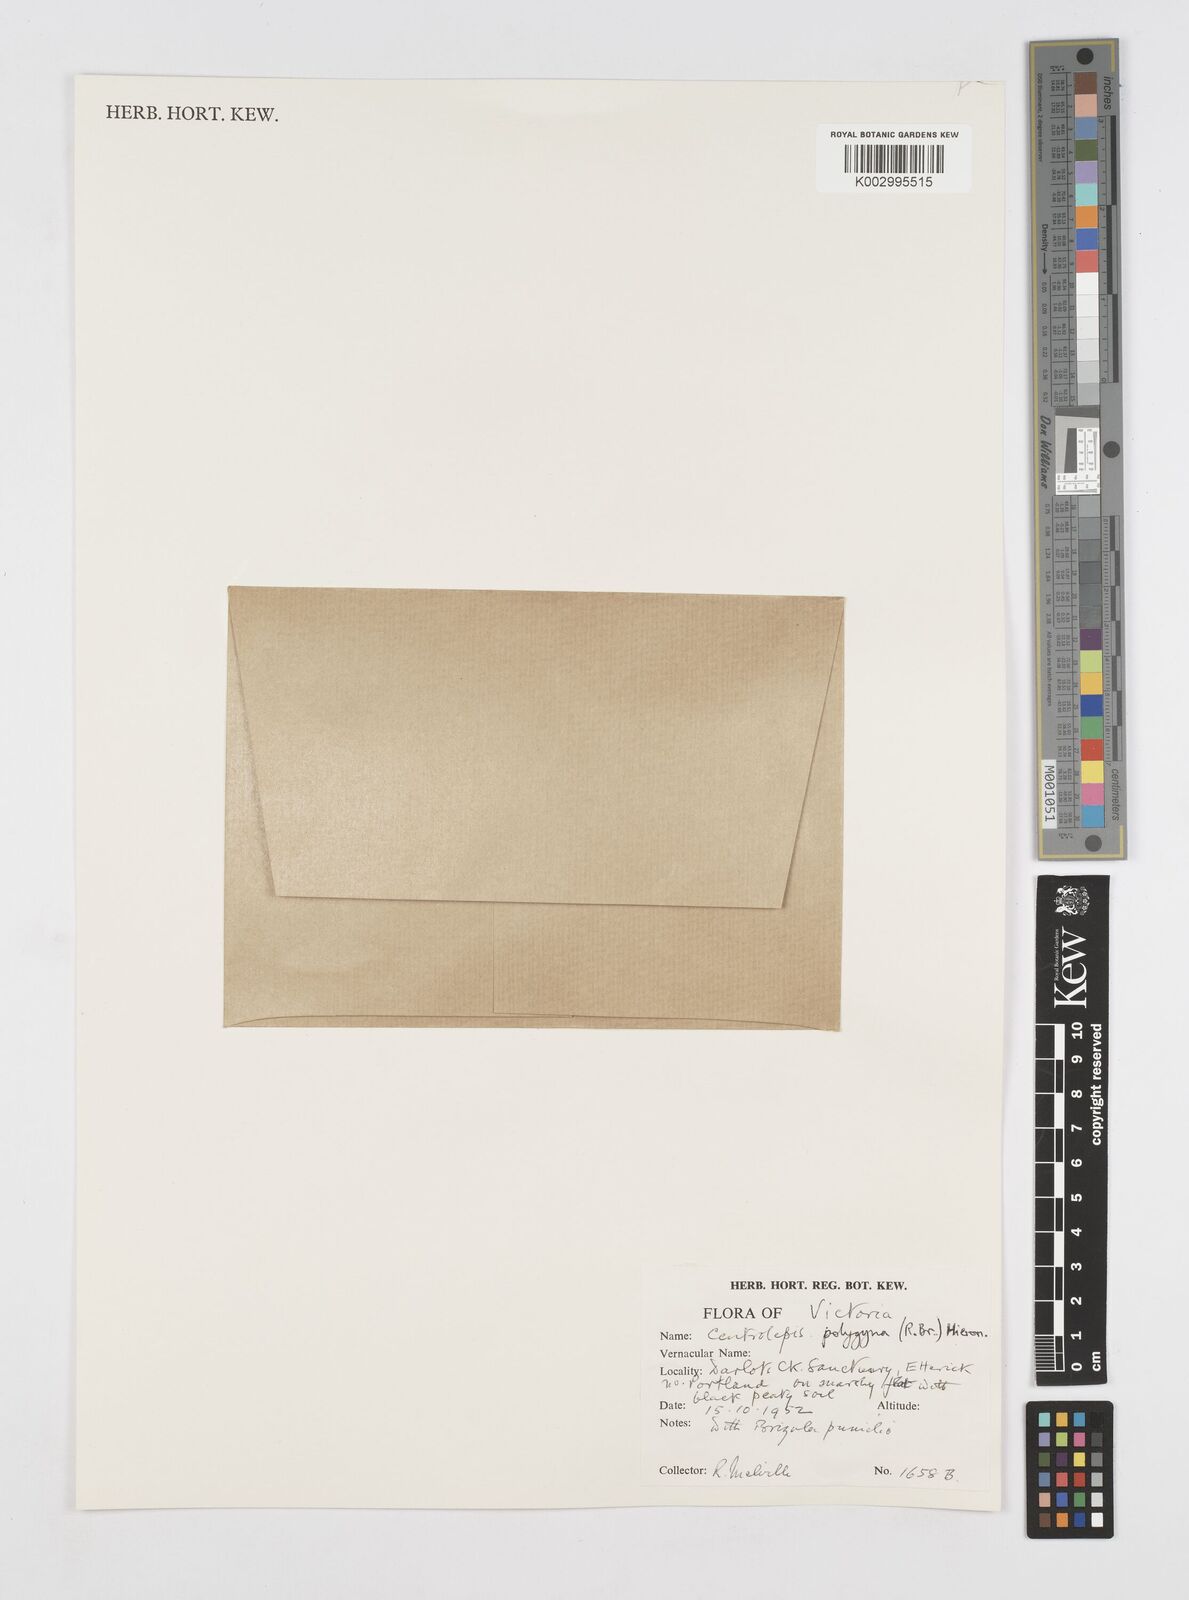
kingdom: Plantae
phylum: Tracheophyta
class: Liliopsida
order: Poales
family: Restionaceae
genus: Centrolepis
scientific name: Centrolepis polygyna
